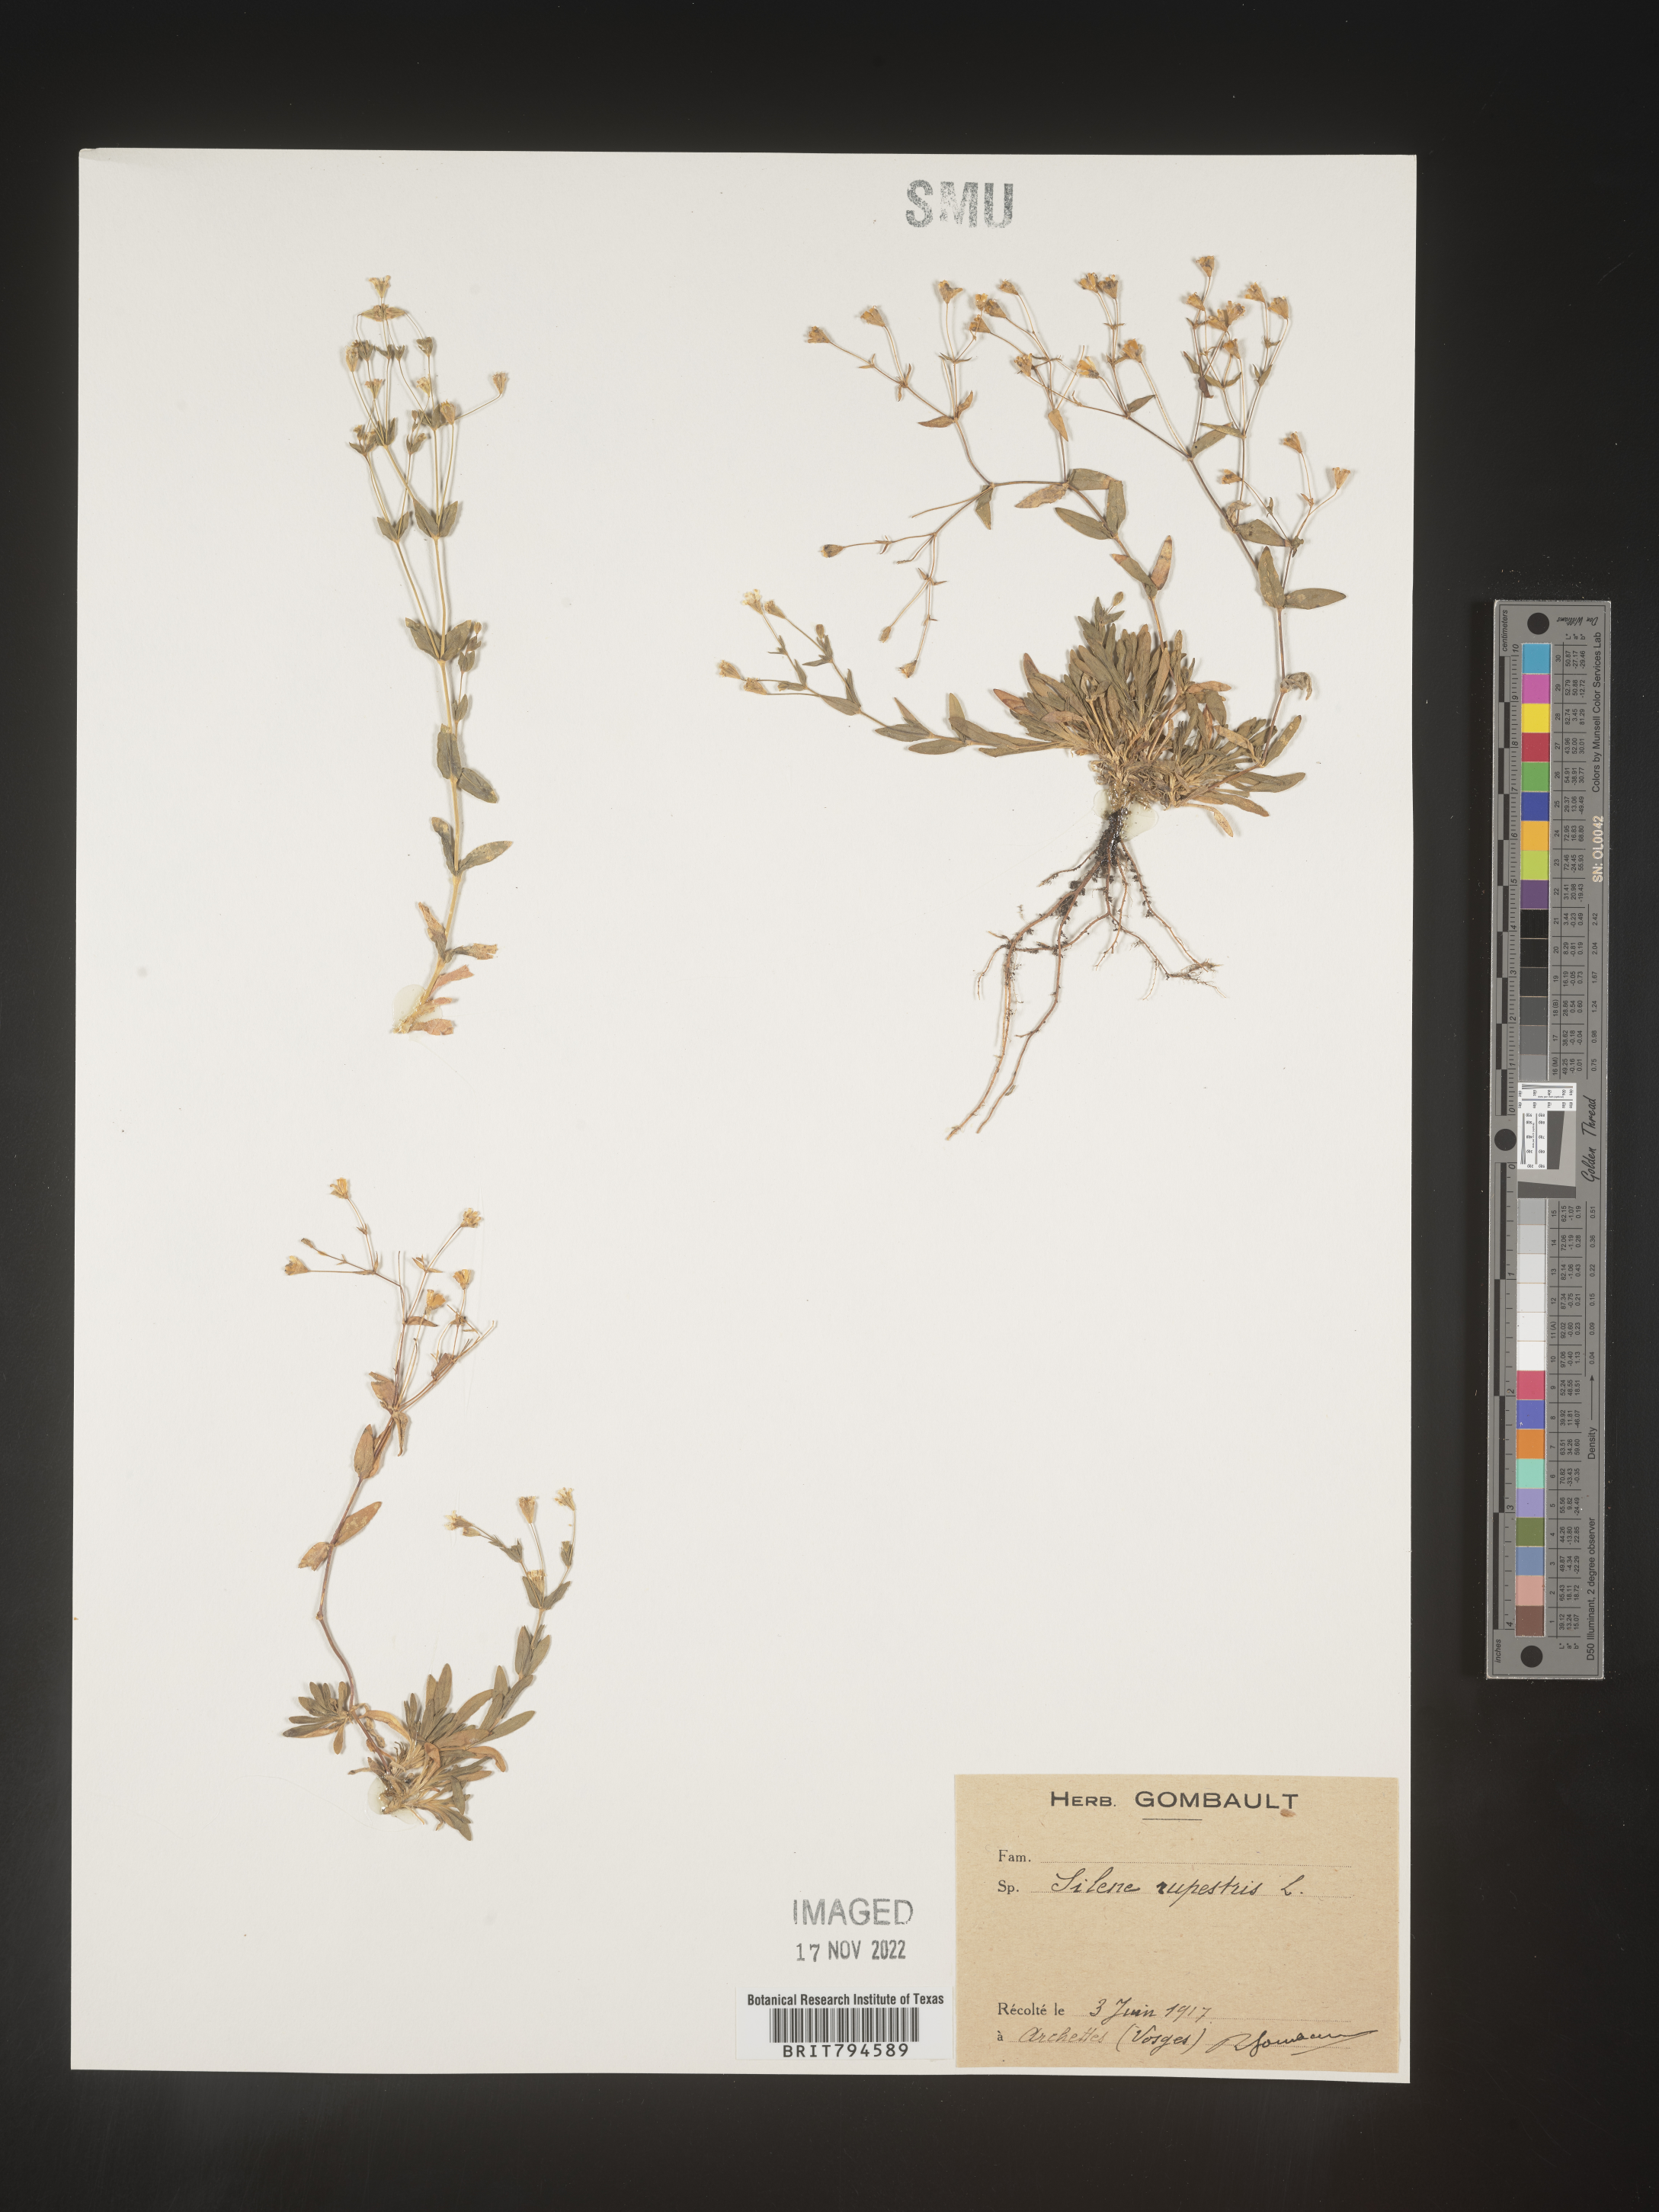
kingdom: Plantae
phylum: Tracheophyta
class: Magnoliopsida
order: Caryophyllales
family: Caryophyllaceae
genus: Atocion
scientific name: Atocion rupestre
